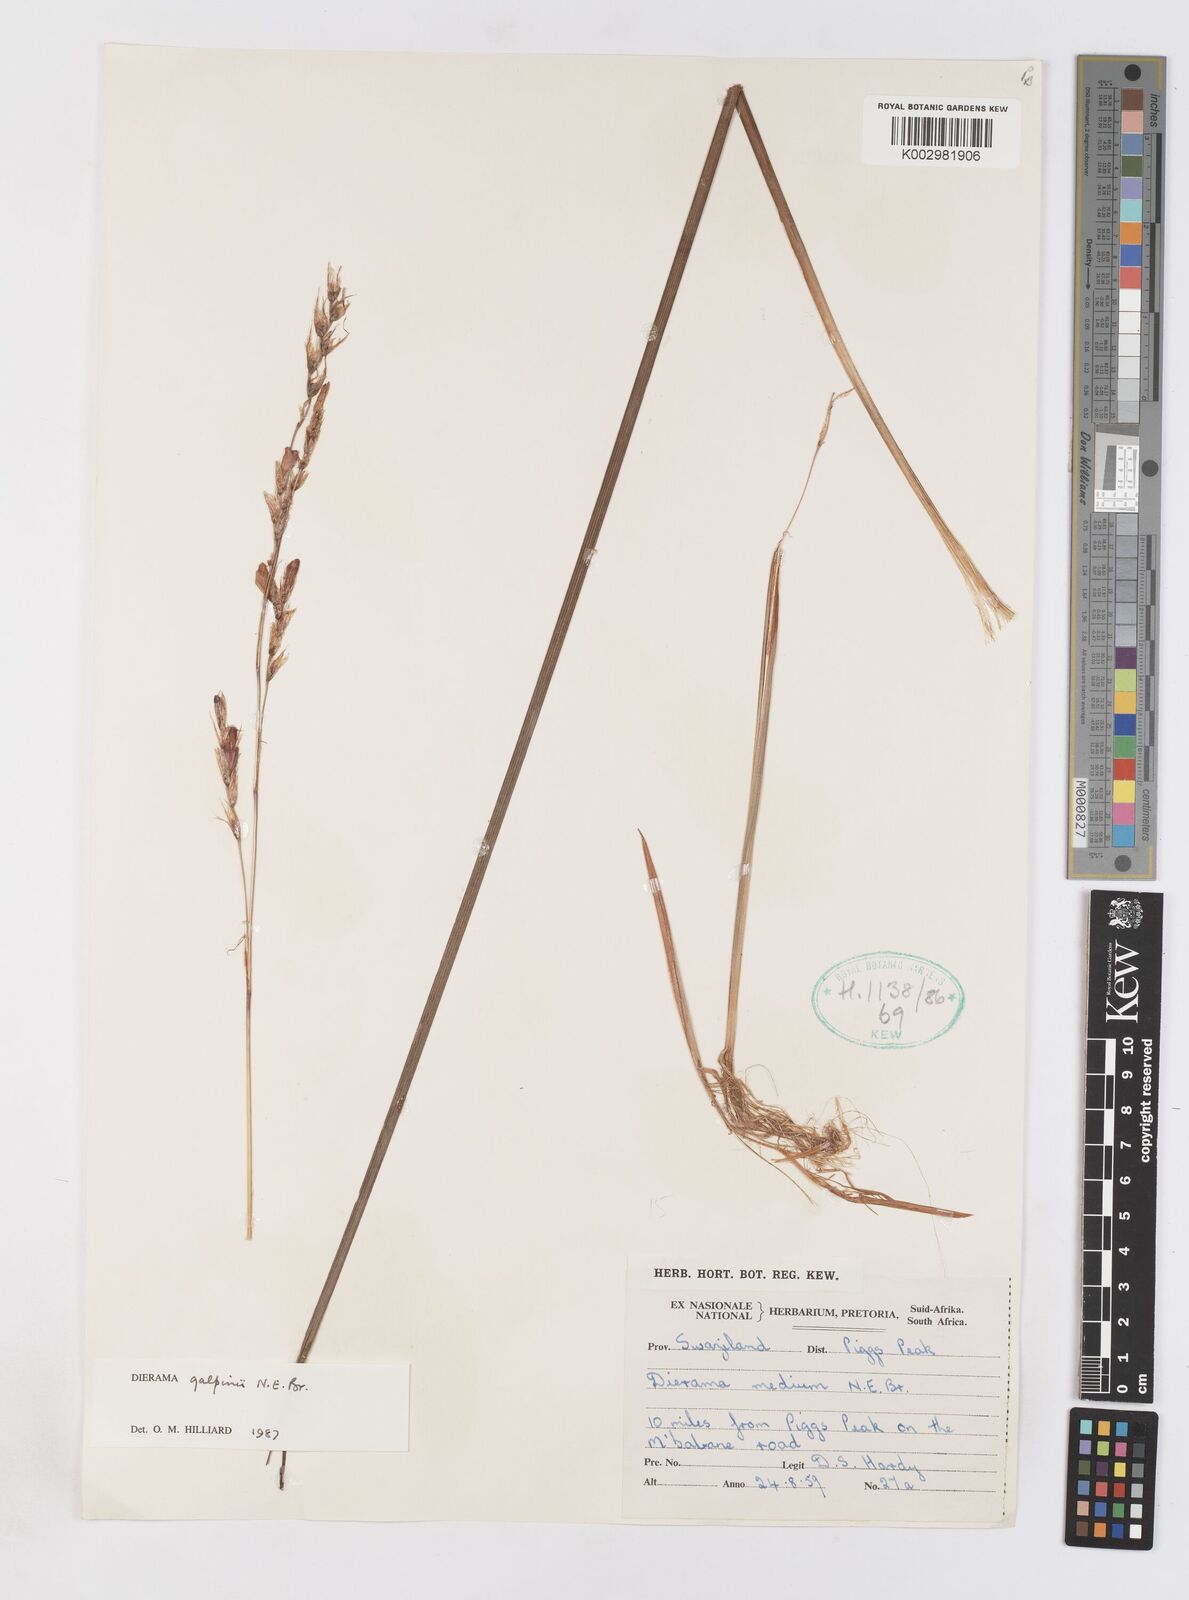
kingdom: Plantae
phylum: Tracheophyta
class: Liliopsida
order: Asparagales
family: Iridaceae
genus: Dierama
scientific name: Dierama galpinii
